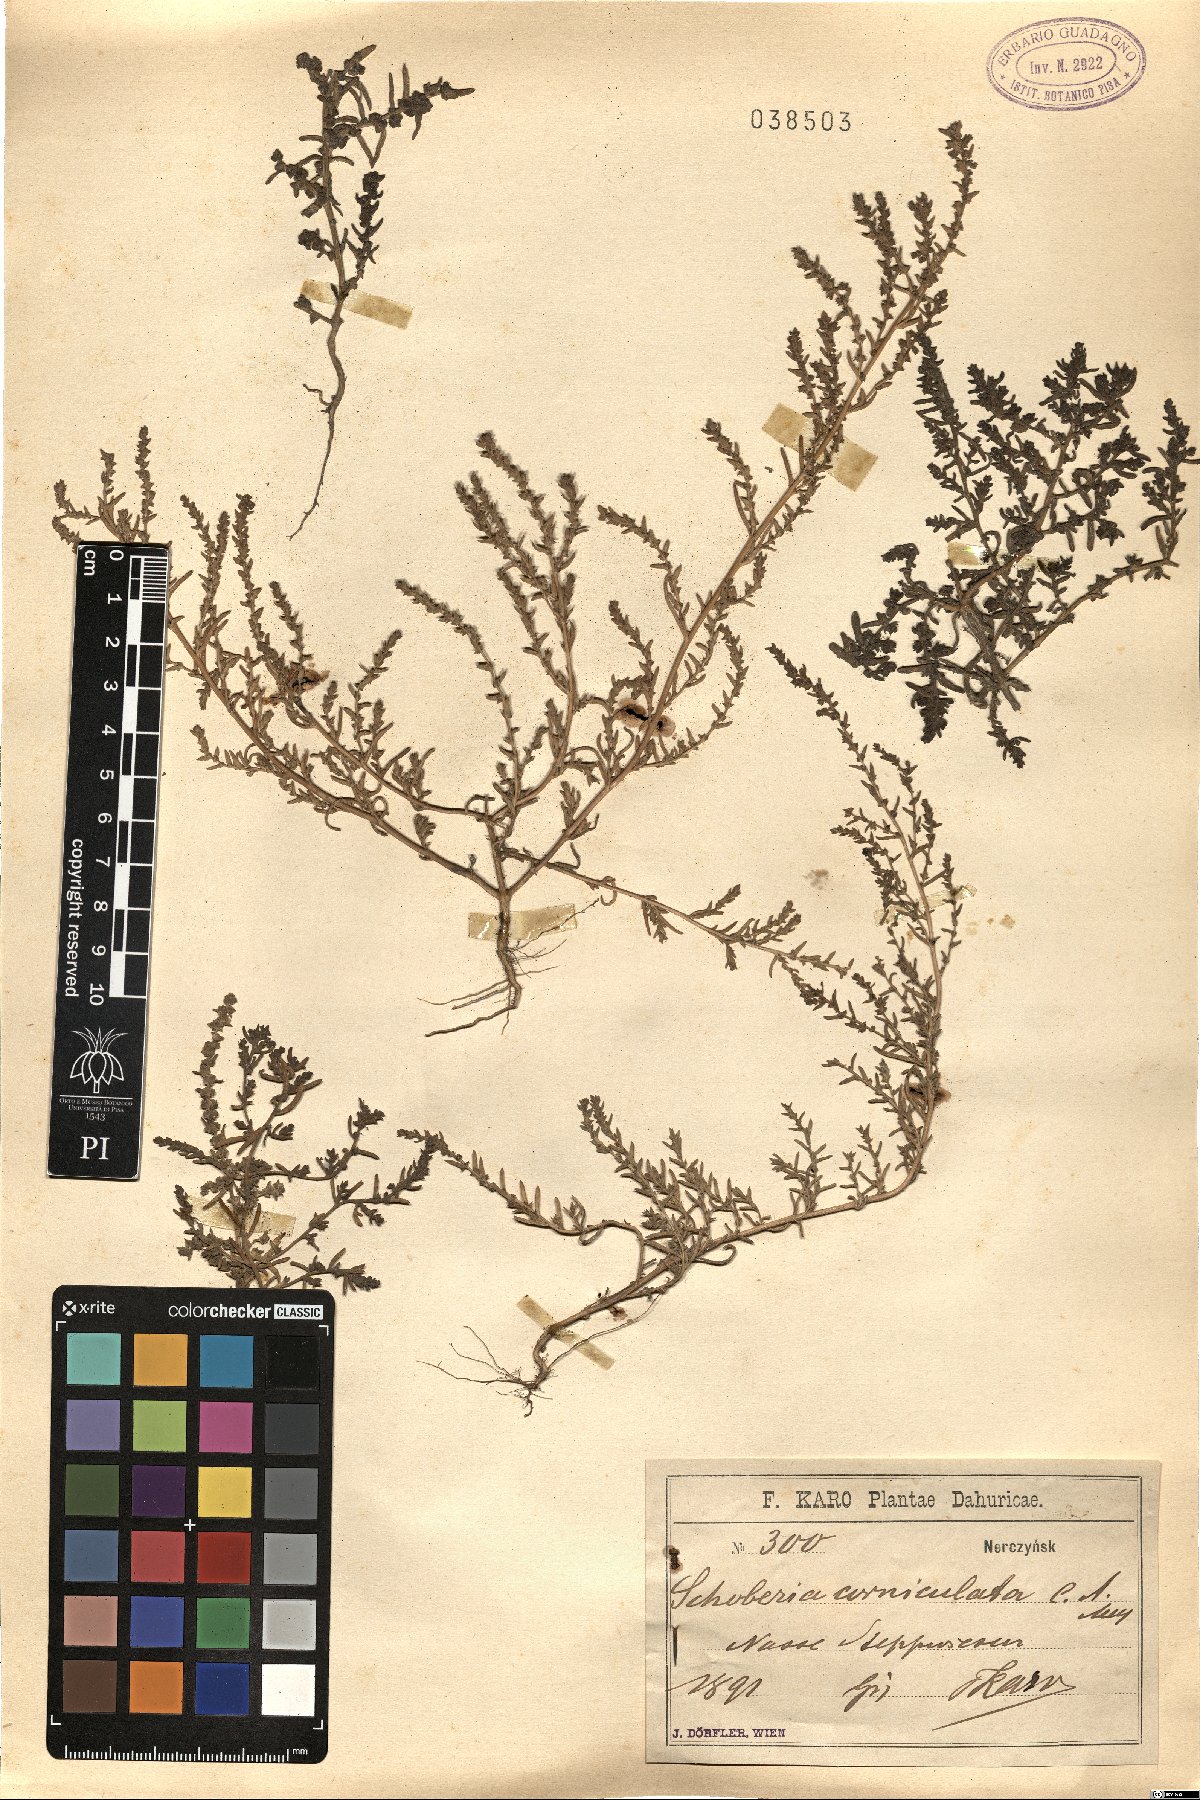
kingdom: Plantae
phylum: Tracheophyta
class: Magnoliopsida
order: Caryophyllales
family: Amaranthaceae
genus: Suaeda
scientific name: Suaeda corniculata
